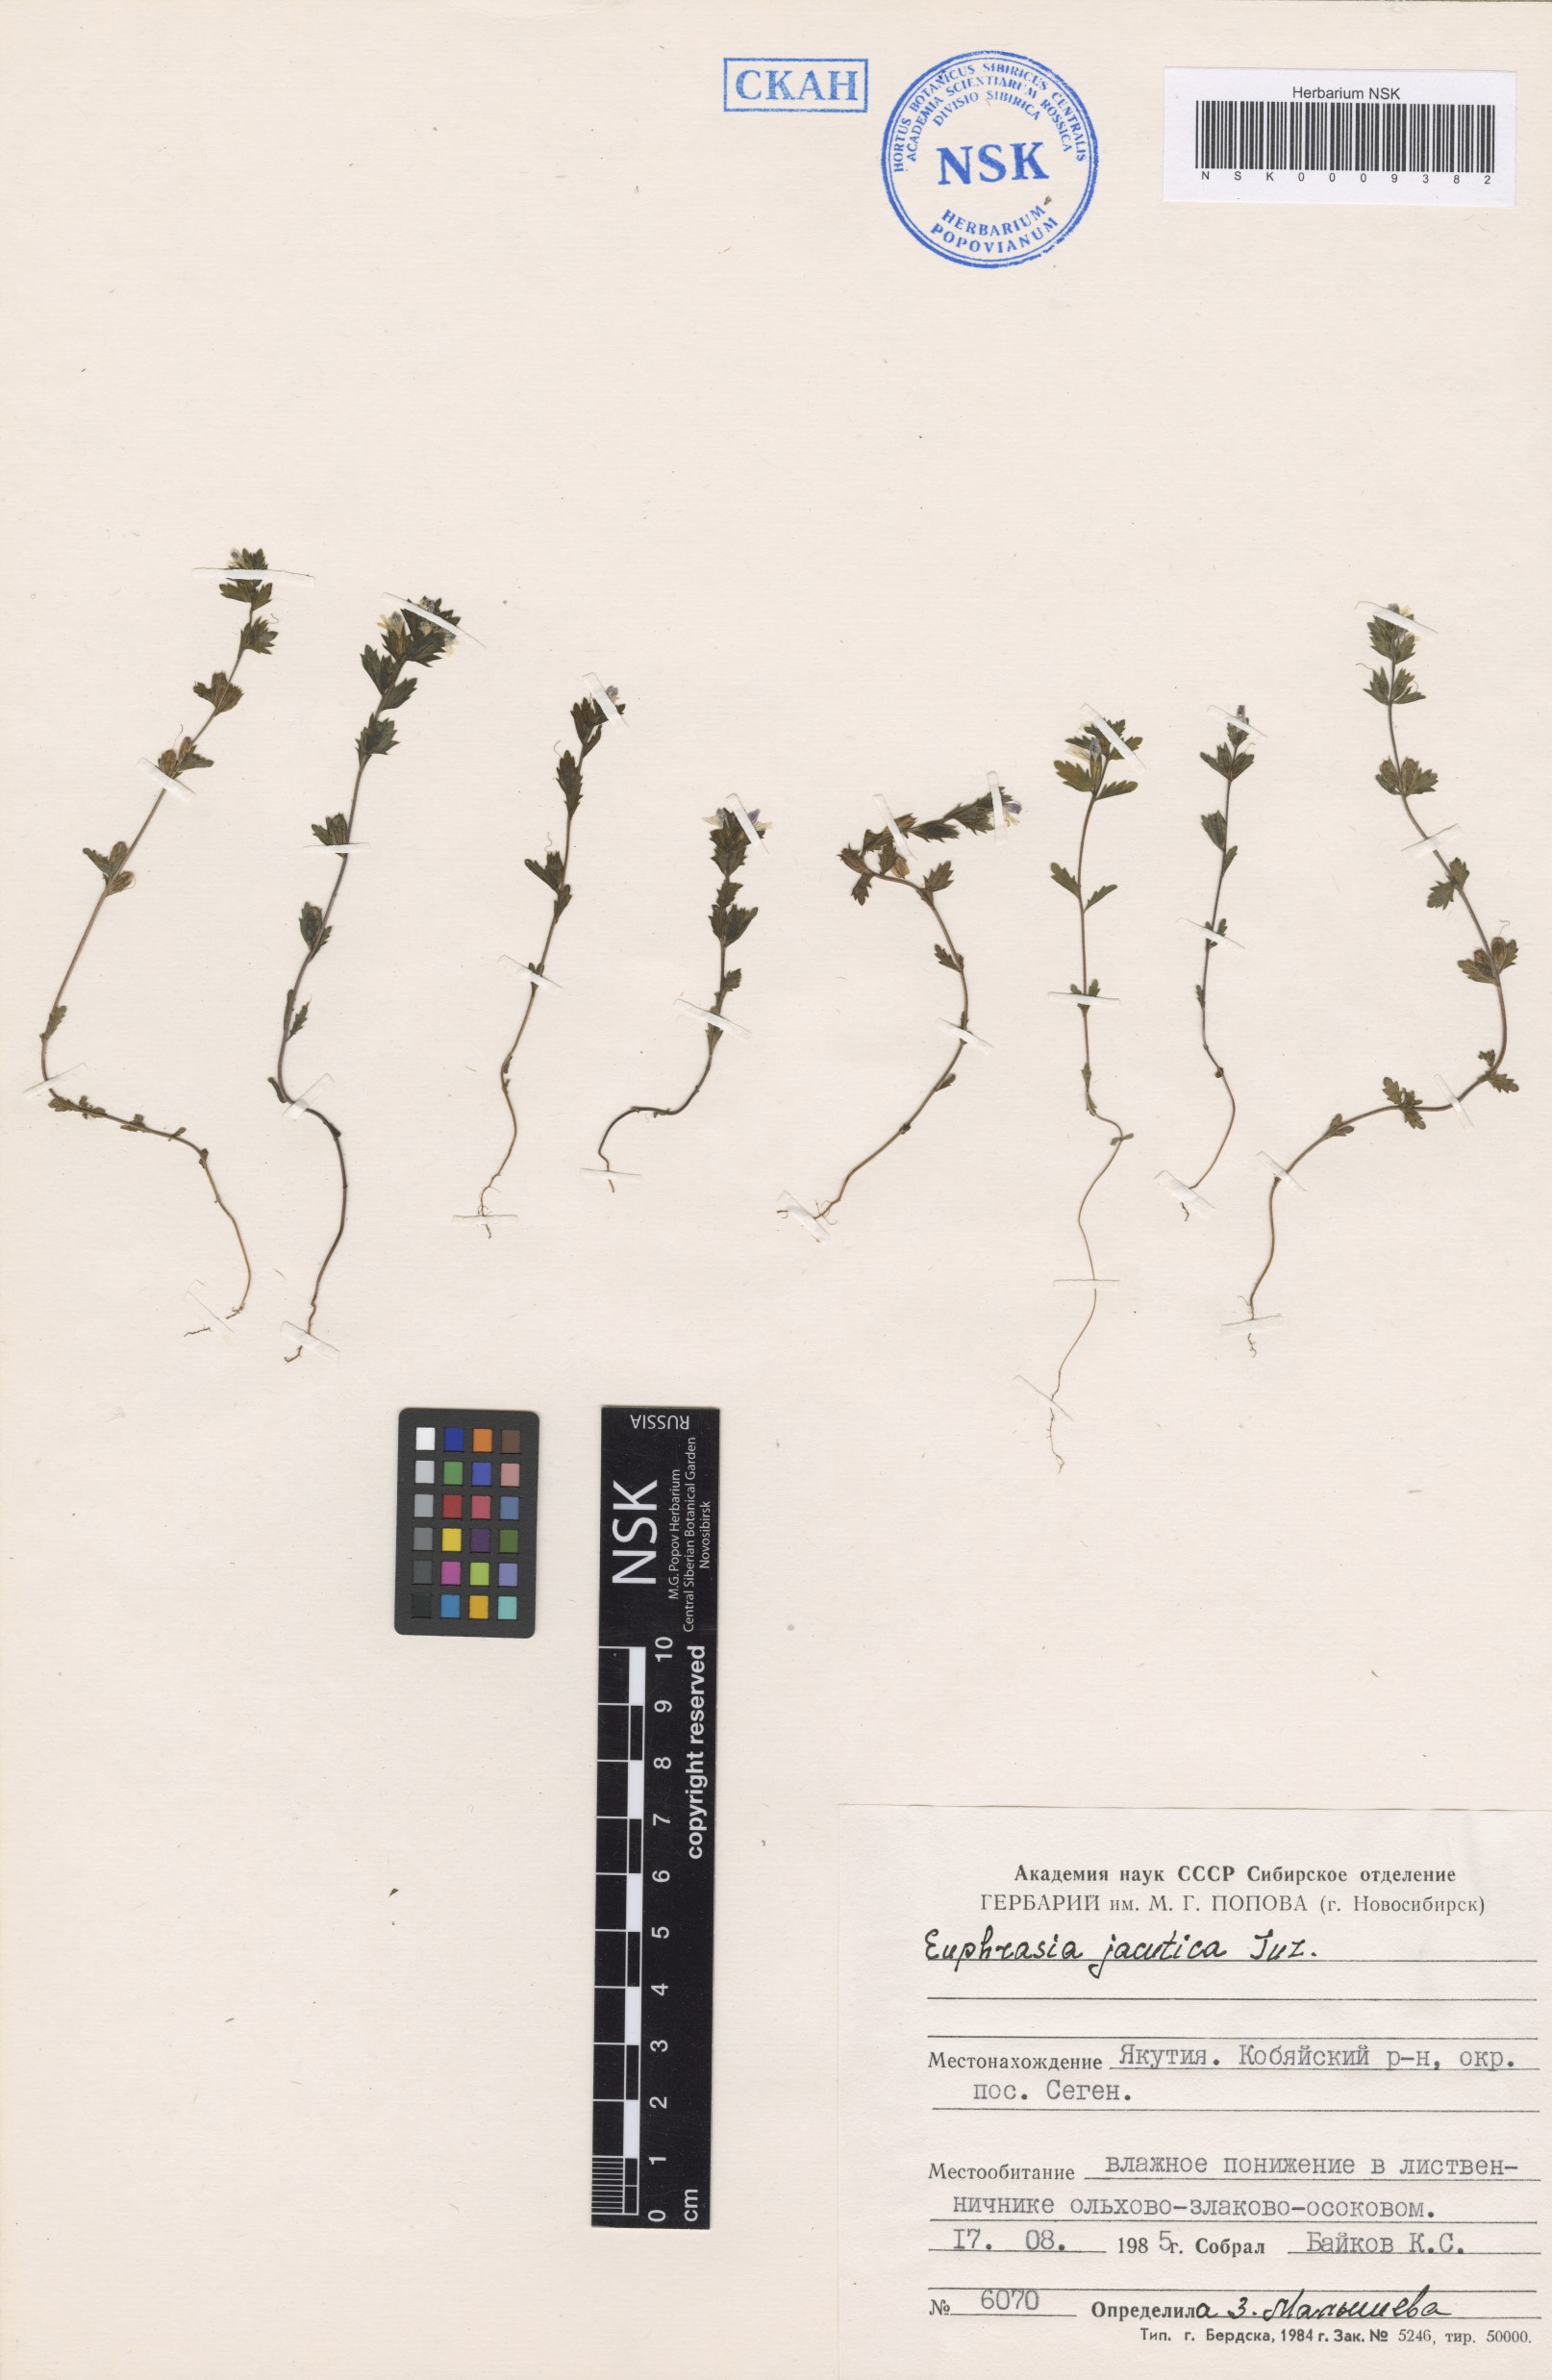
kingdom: Plantae
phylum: Tracheophyta
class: Magnoliopsida
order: Lamiales
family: Orobanchaceae
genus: Euphrasia
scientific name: Euphrasia jacutica
